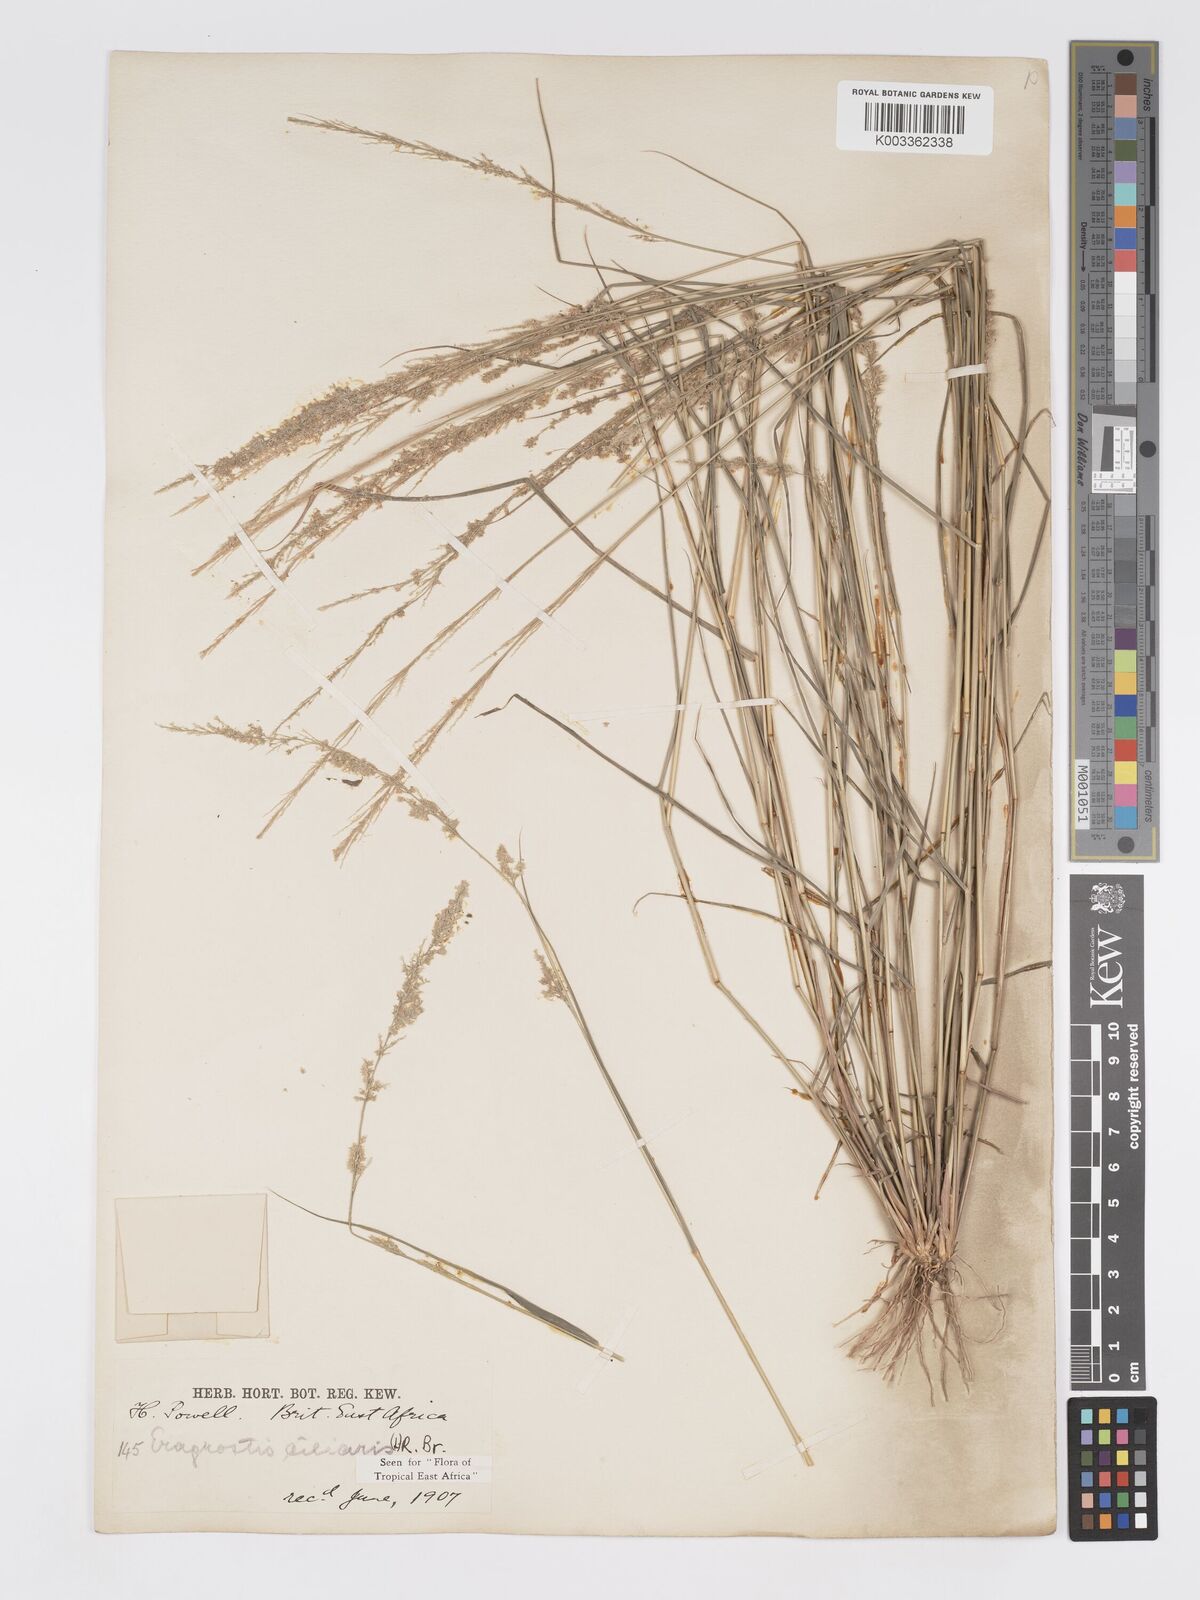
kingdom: Plantae
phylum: Tracheophyta
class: Liliopsida
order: Poales
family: Poaceae
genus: Eragrostis
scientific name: Eragrostis ciliaris
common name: Gophertail lovegrass
